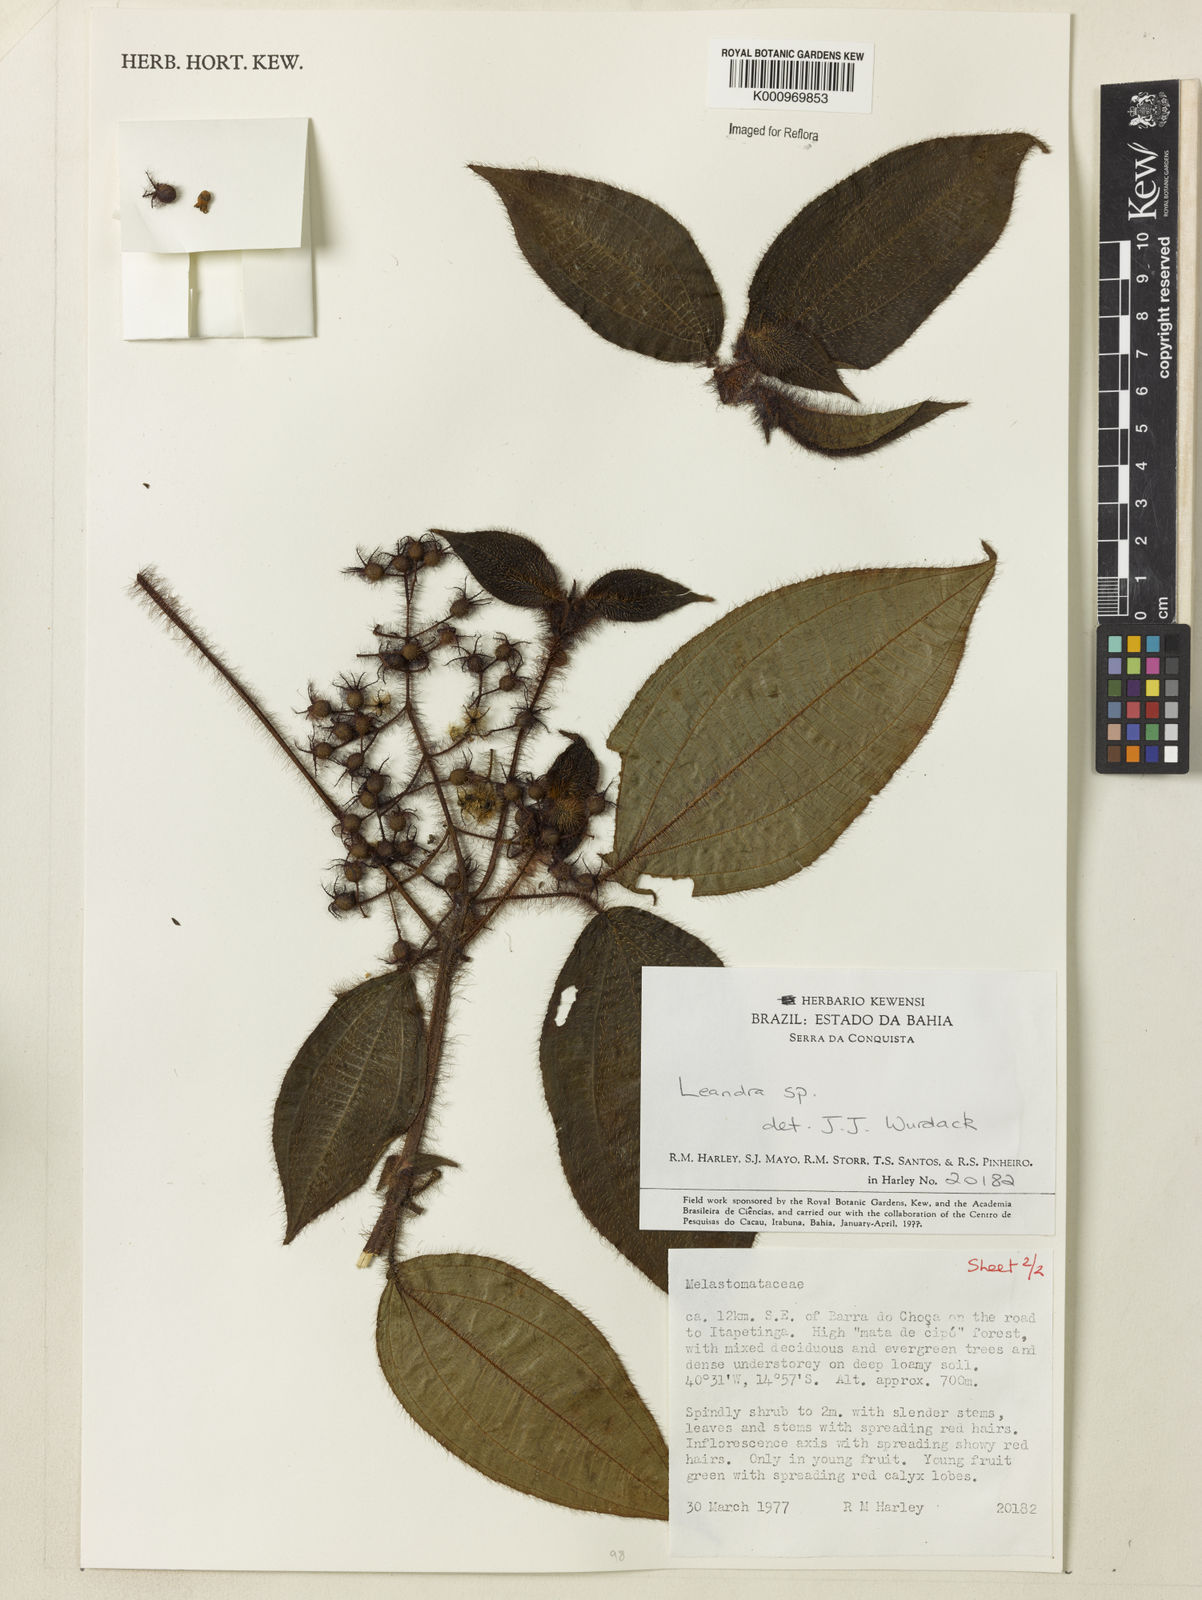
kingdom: Plantae
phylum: Tracheophyta
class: Magnoliopsida
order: Myrtales
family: Melastomataceae
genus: Miconia
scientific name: Miconia
